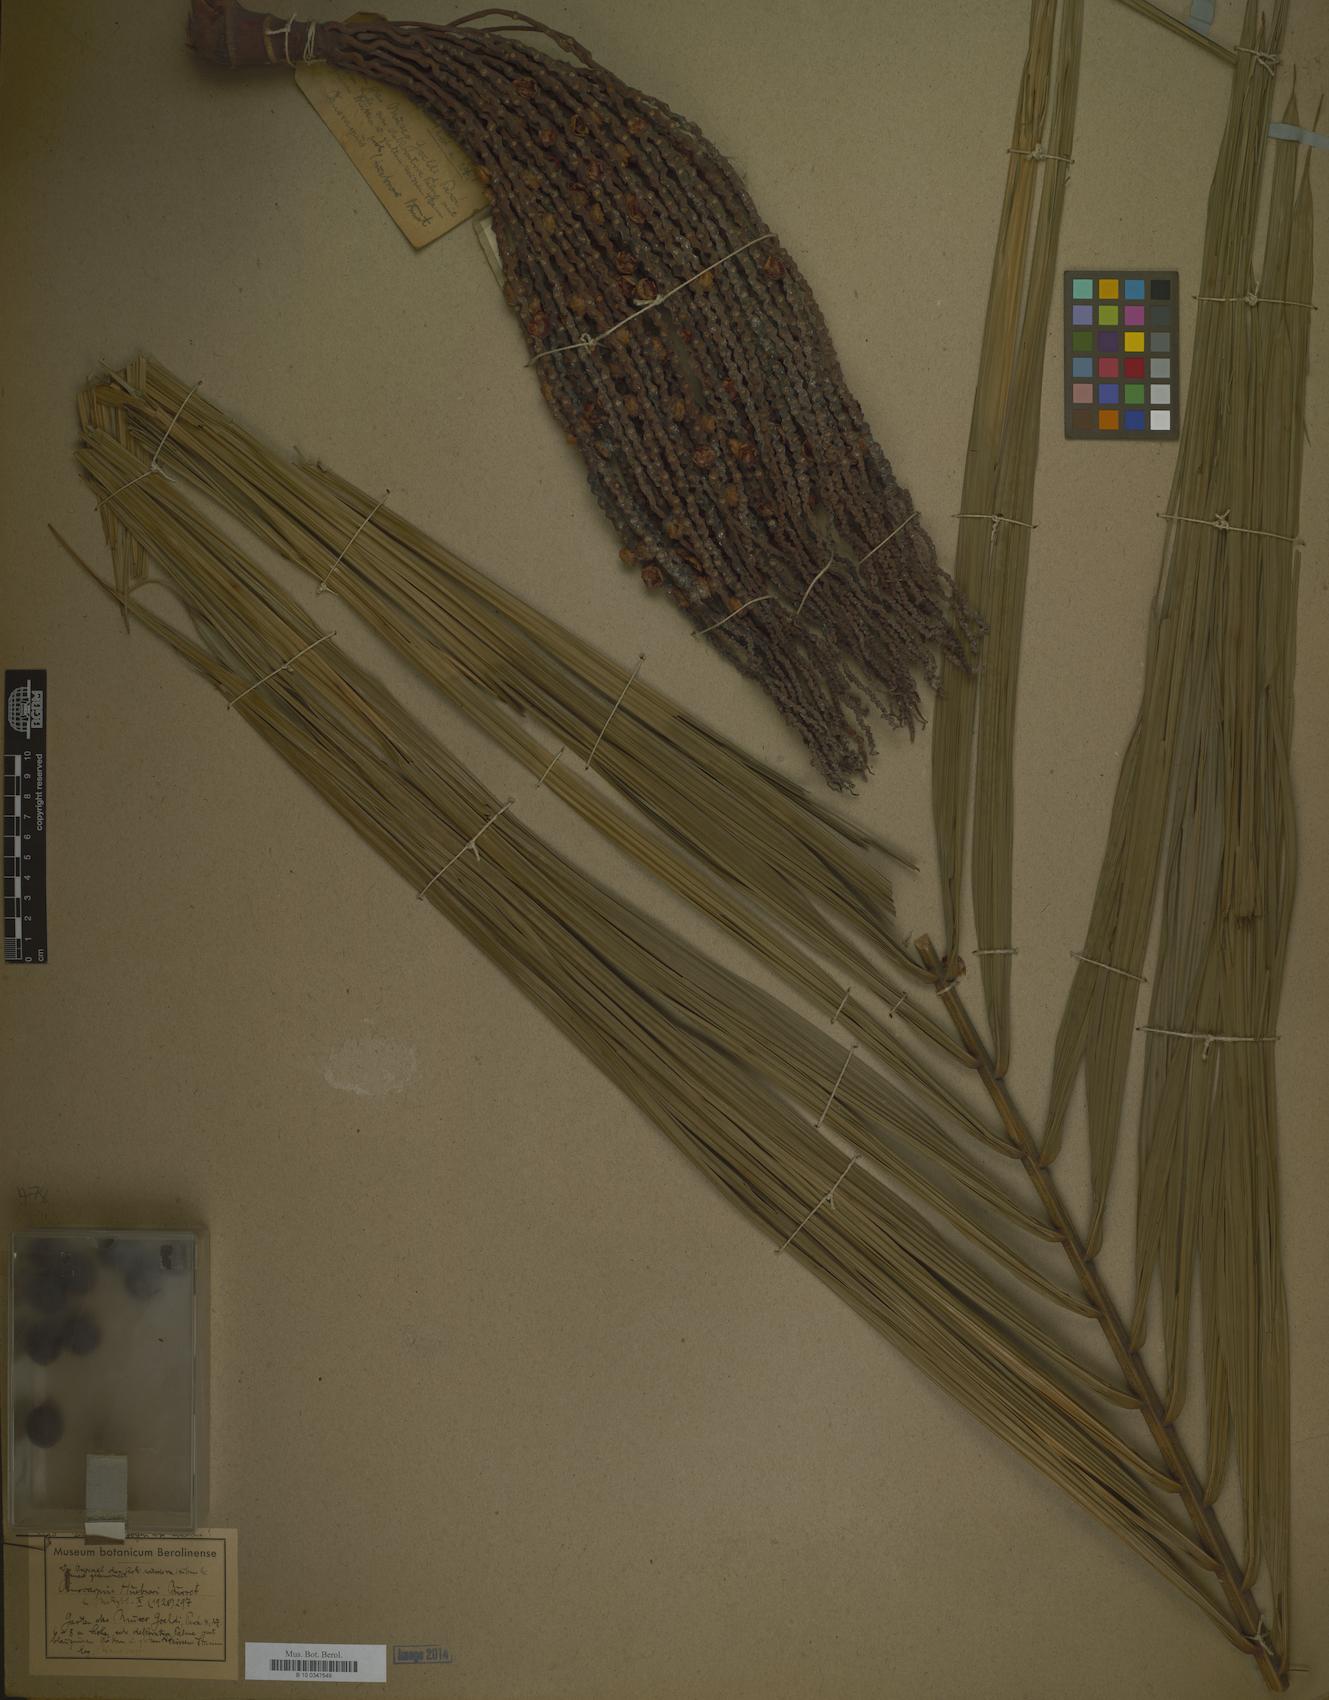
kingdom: Plantae
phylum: Tracheophyta
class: Liliopsida
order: Arecales
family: Arecaceae
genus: Oenocarpus
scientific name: Oenocarpus minor
